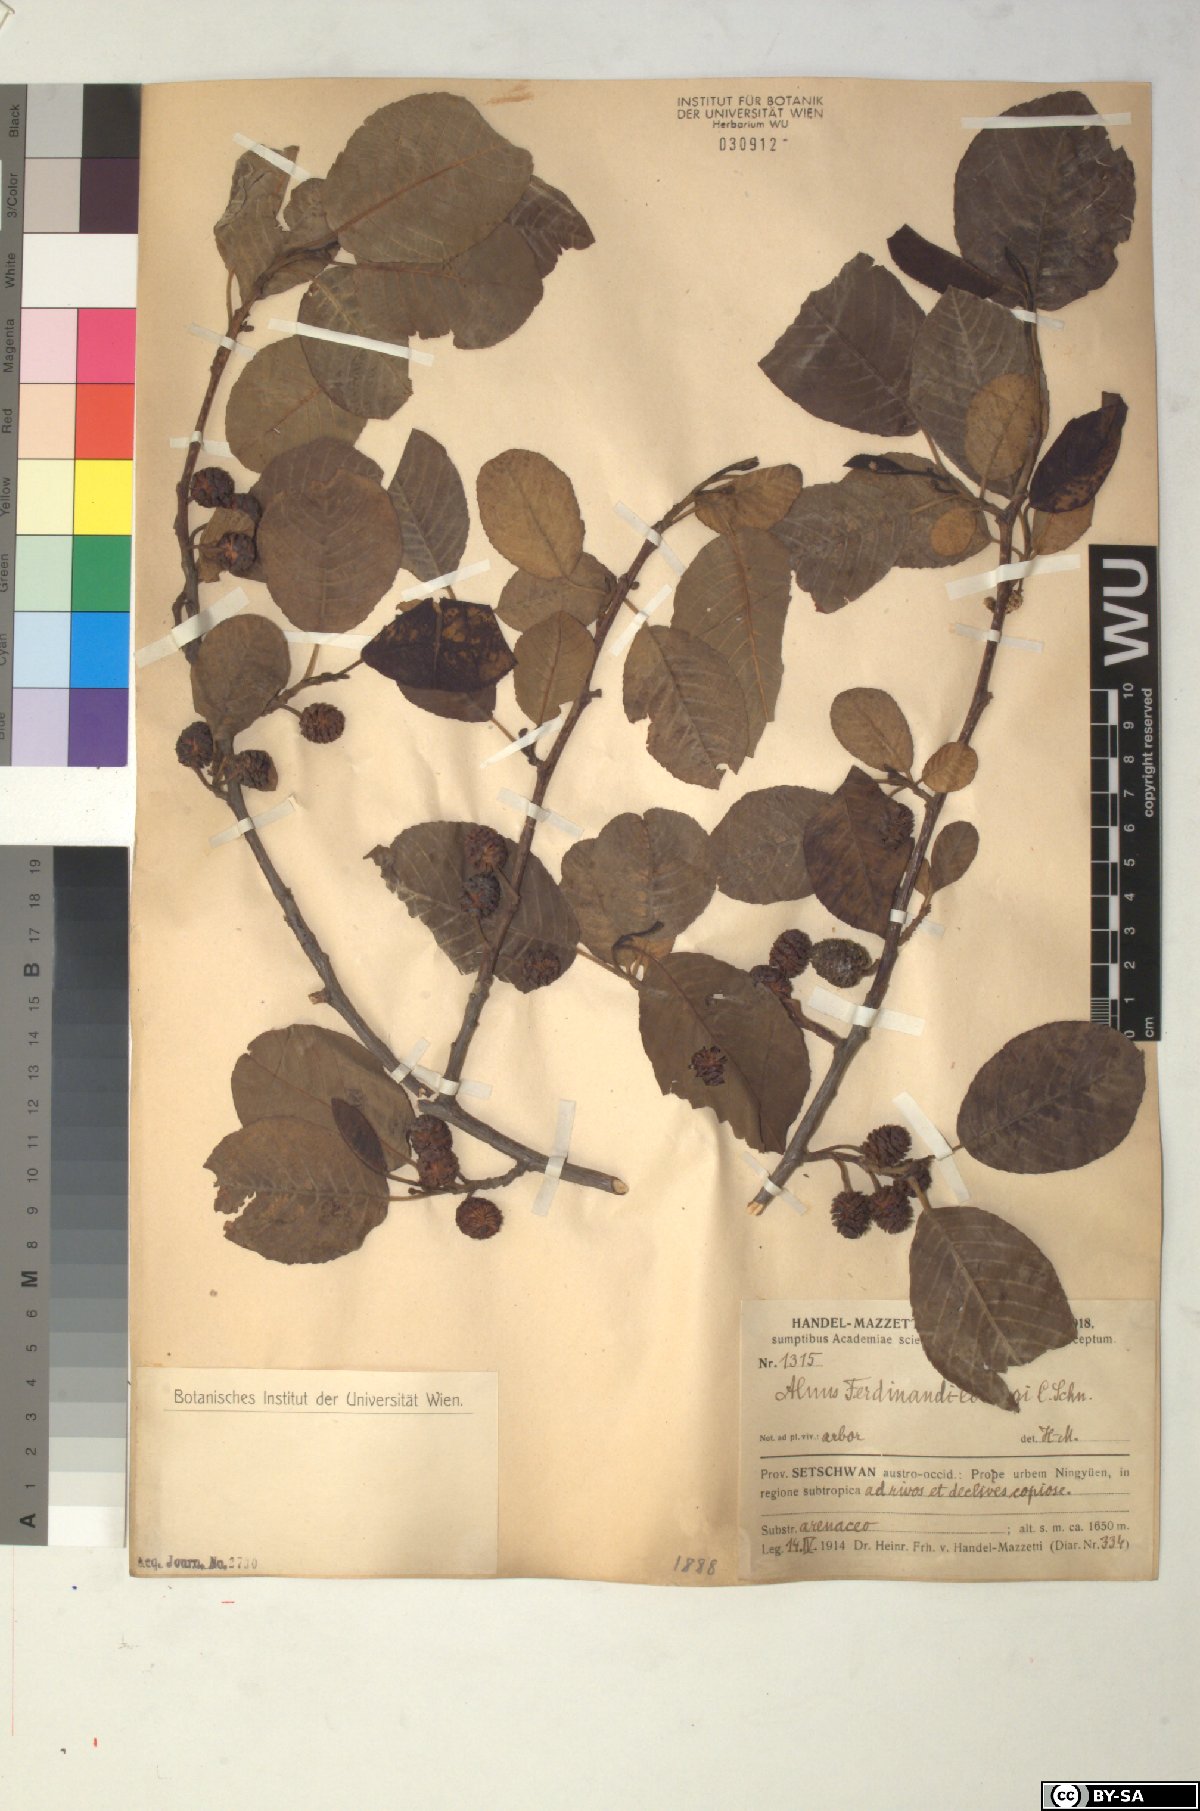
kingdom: Plantae
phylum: Tracheophyta
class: Magnoliopsida
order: Fagales
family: Betulaceae
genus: Alnus
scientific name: Alnus ferdinandi-coburgii
